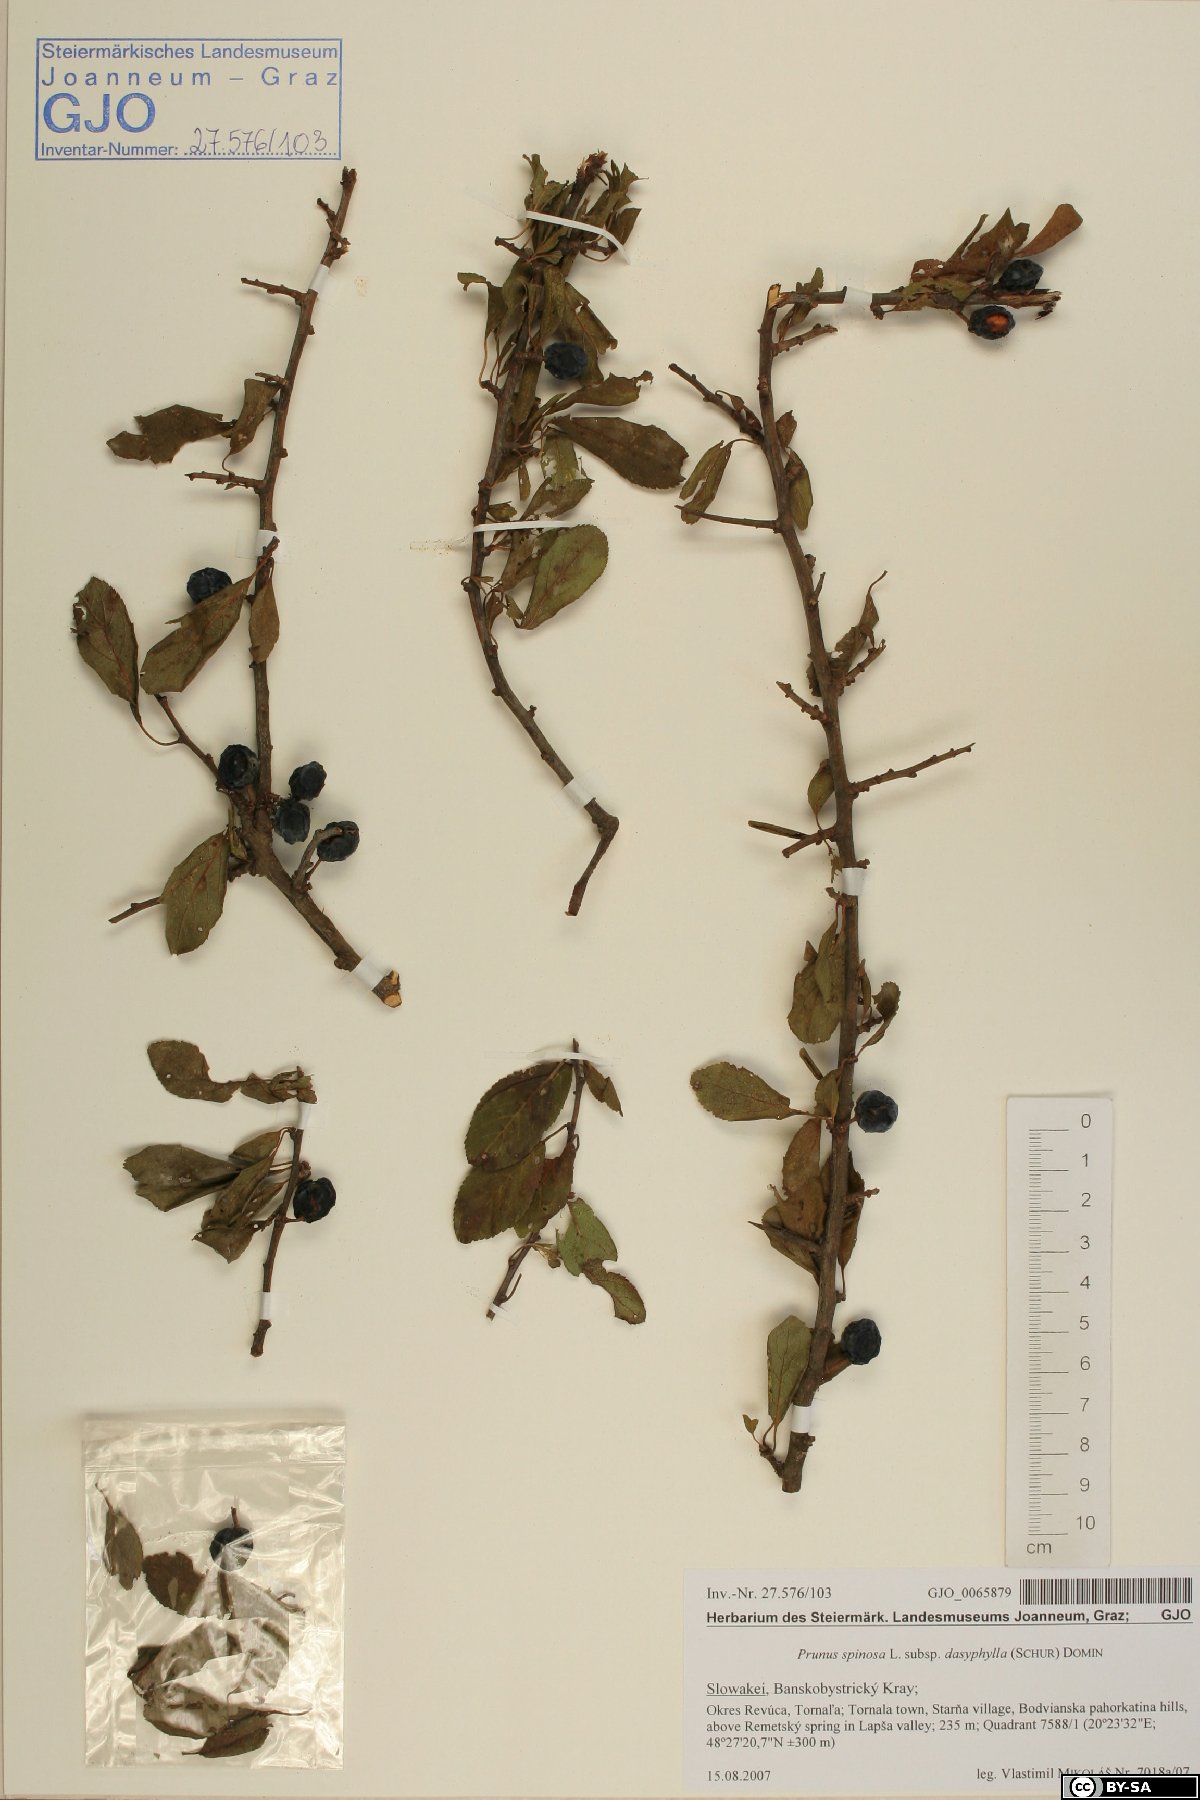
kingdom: Plantae
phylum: Tracheophyta
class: Magnoliopsida
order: Rosales
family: Rosaceae
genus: Prunus
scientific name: Prunus spinosa
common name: Blackthorn
